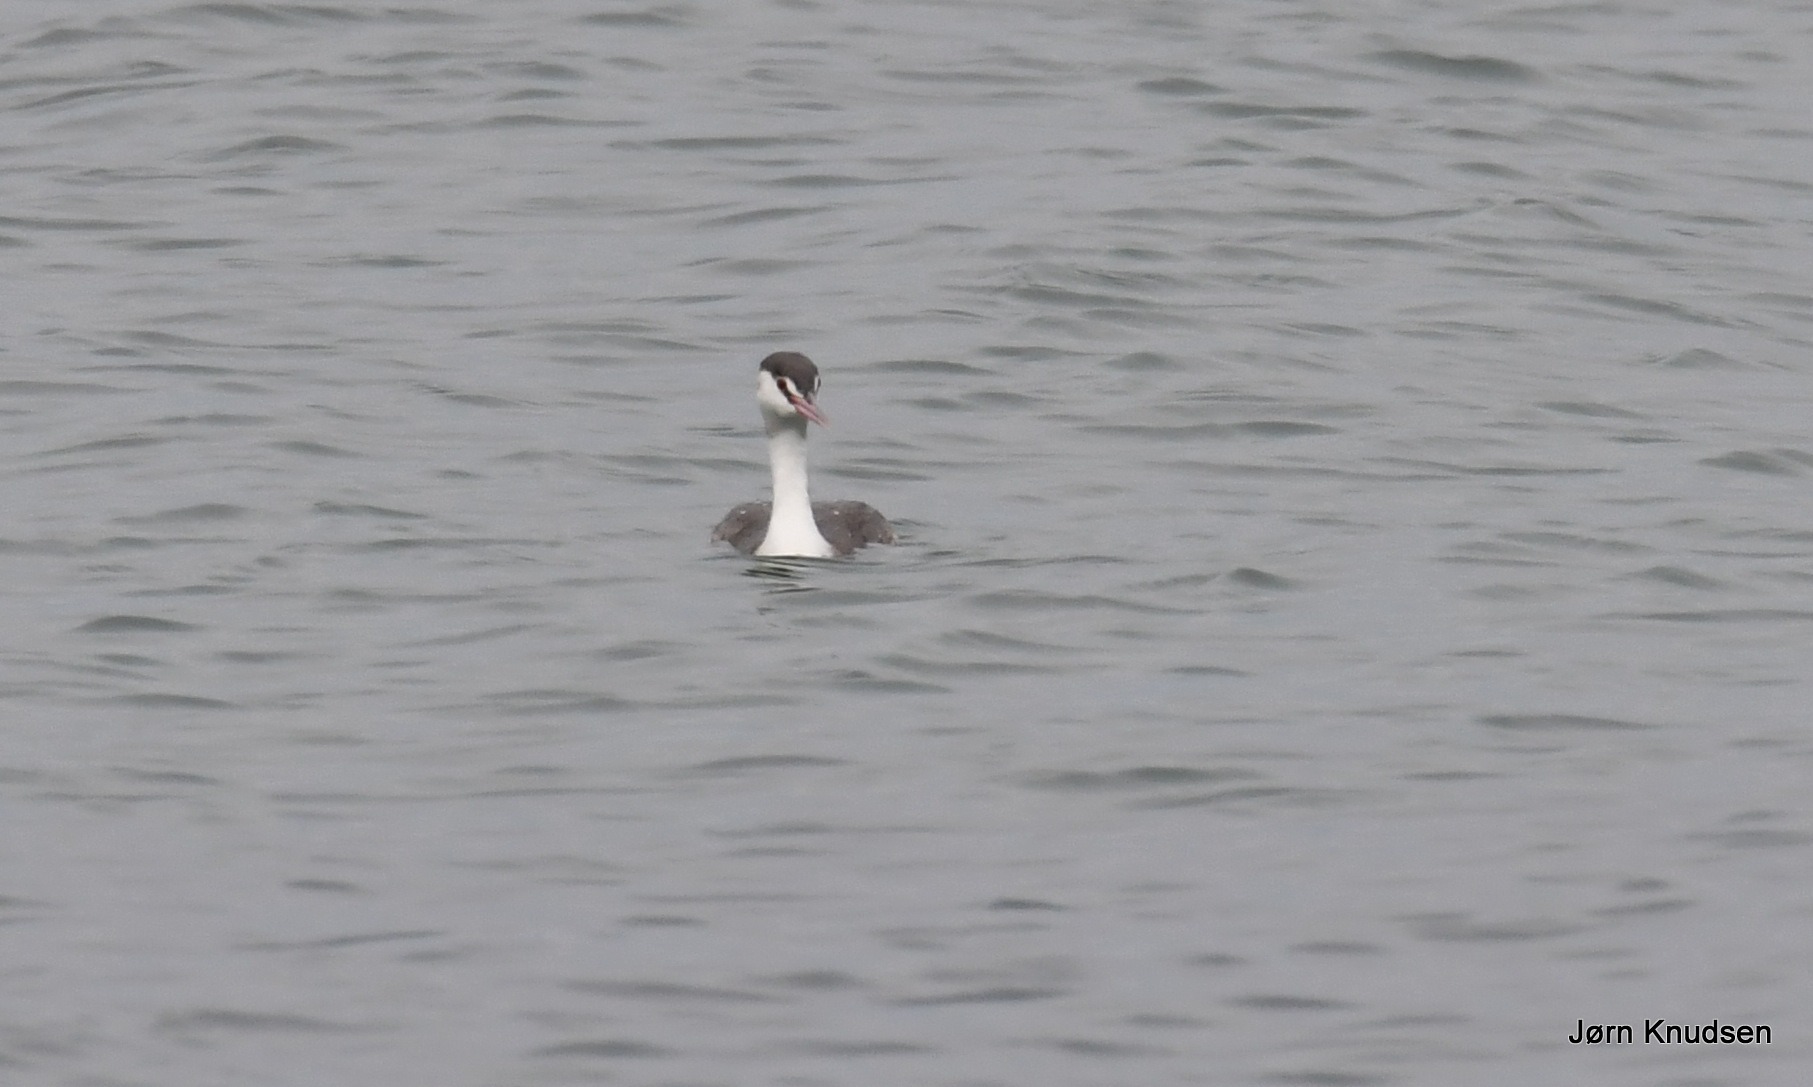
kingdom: Animalia
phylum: Chordata
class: Aves
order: Podicipediformes
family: Podicipedidae
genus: Podiceps
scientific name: Podiceps cristatus
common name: Toppet lappedykker
